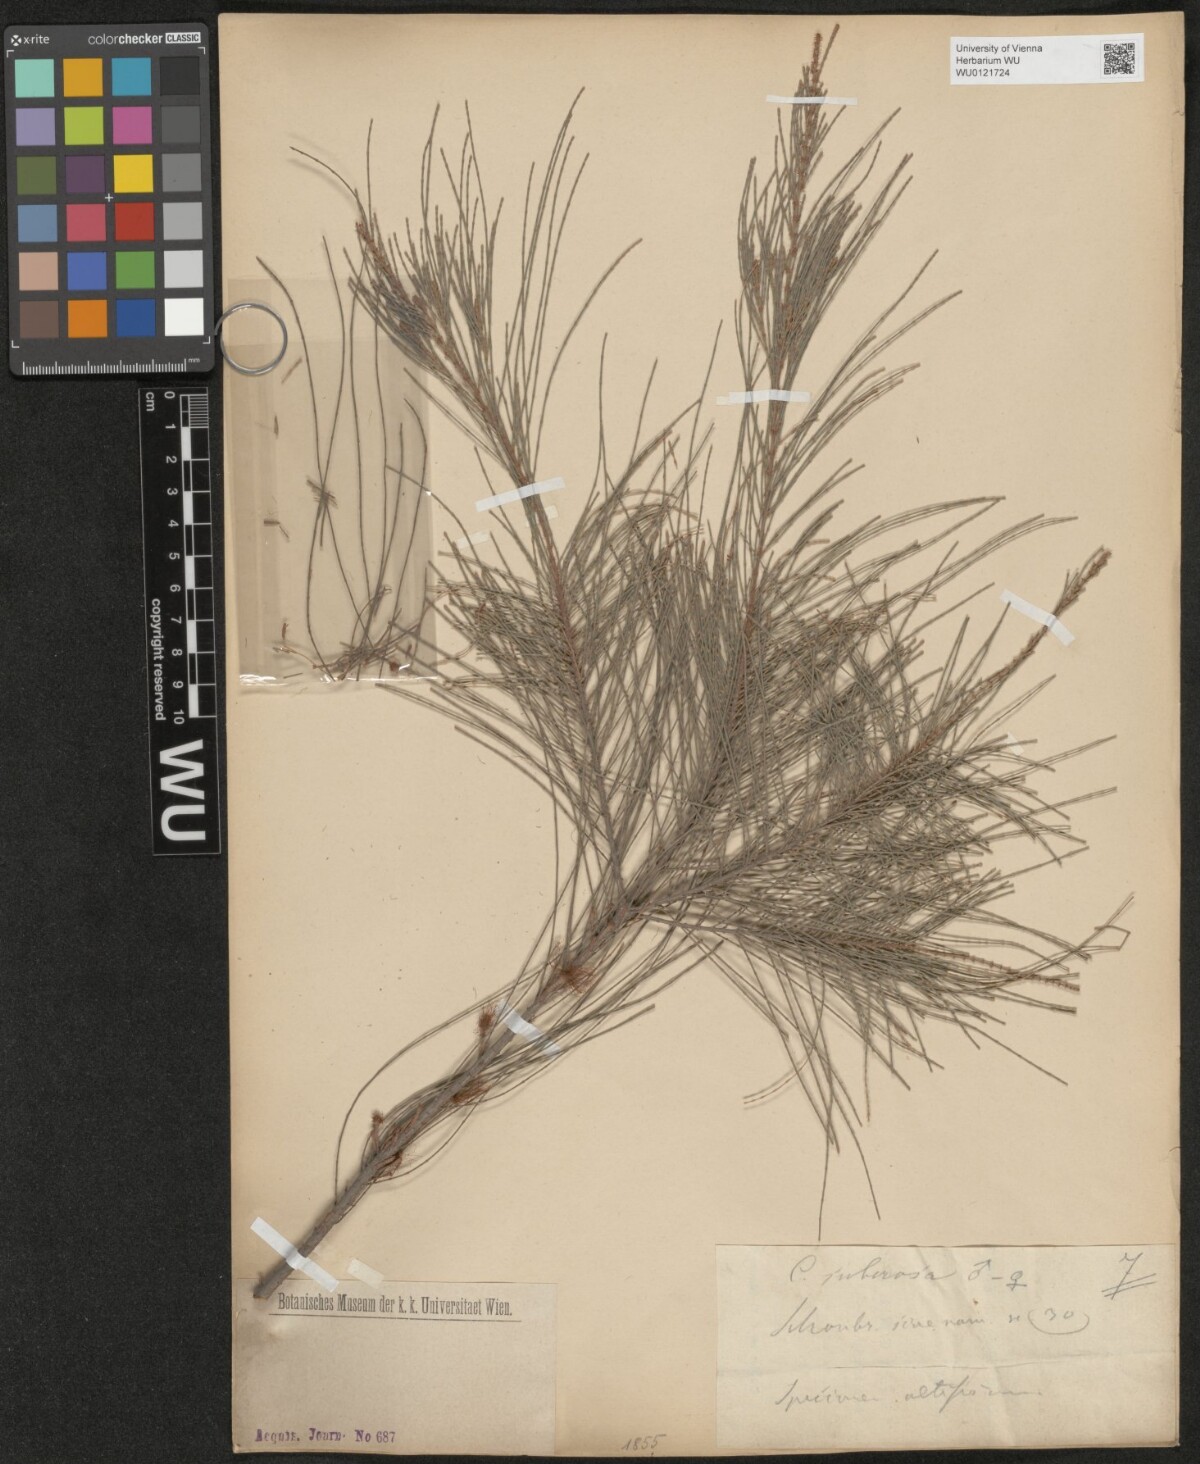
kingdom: Plantae
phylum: Tracheophyta
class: Magnoliopsida
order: Fagales
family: Casuarinaceae
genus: Allocasuarina
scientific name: Allocasuarina littoralis
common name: Black she-oak
